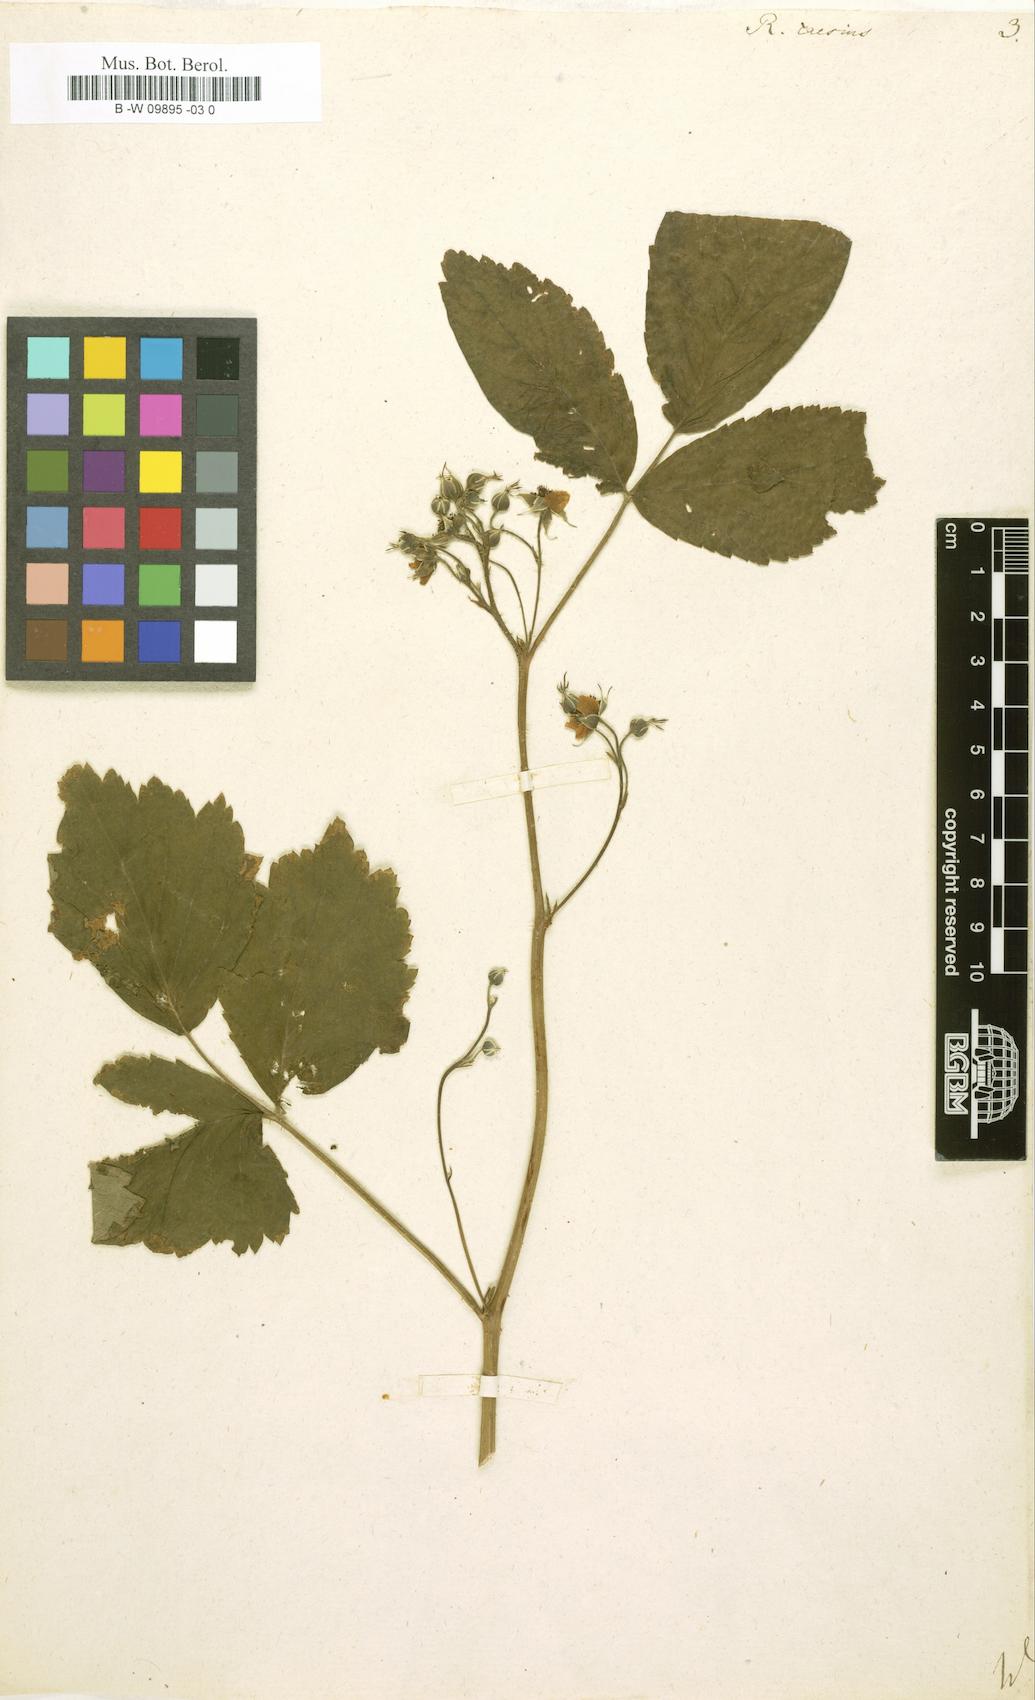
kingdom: Plantae
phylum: Tracheophyta
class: Magnoliopsida
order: Rosales
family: Rosaceae
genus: Rubus
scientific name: Rubus caesius
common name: Dewberry
